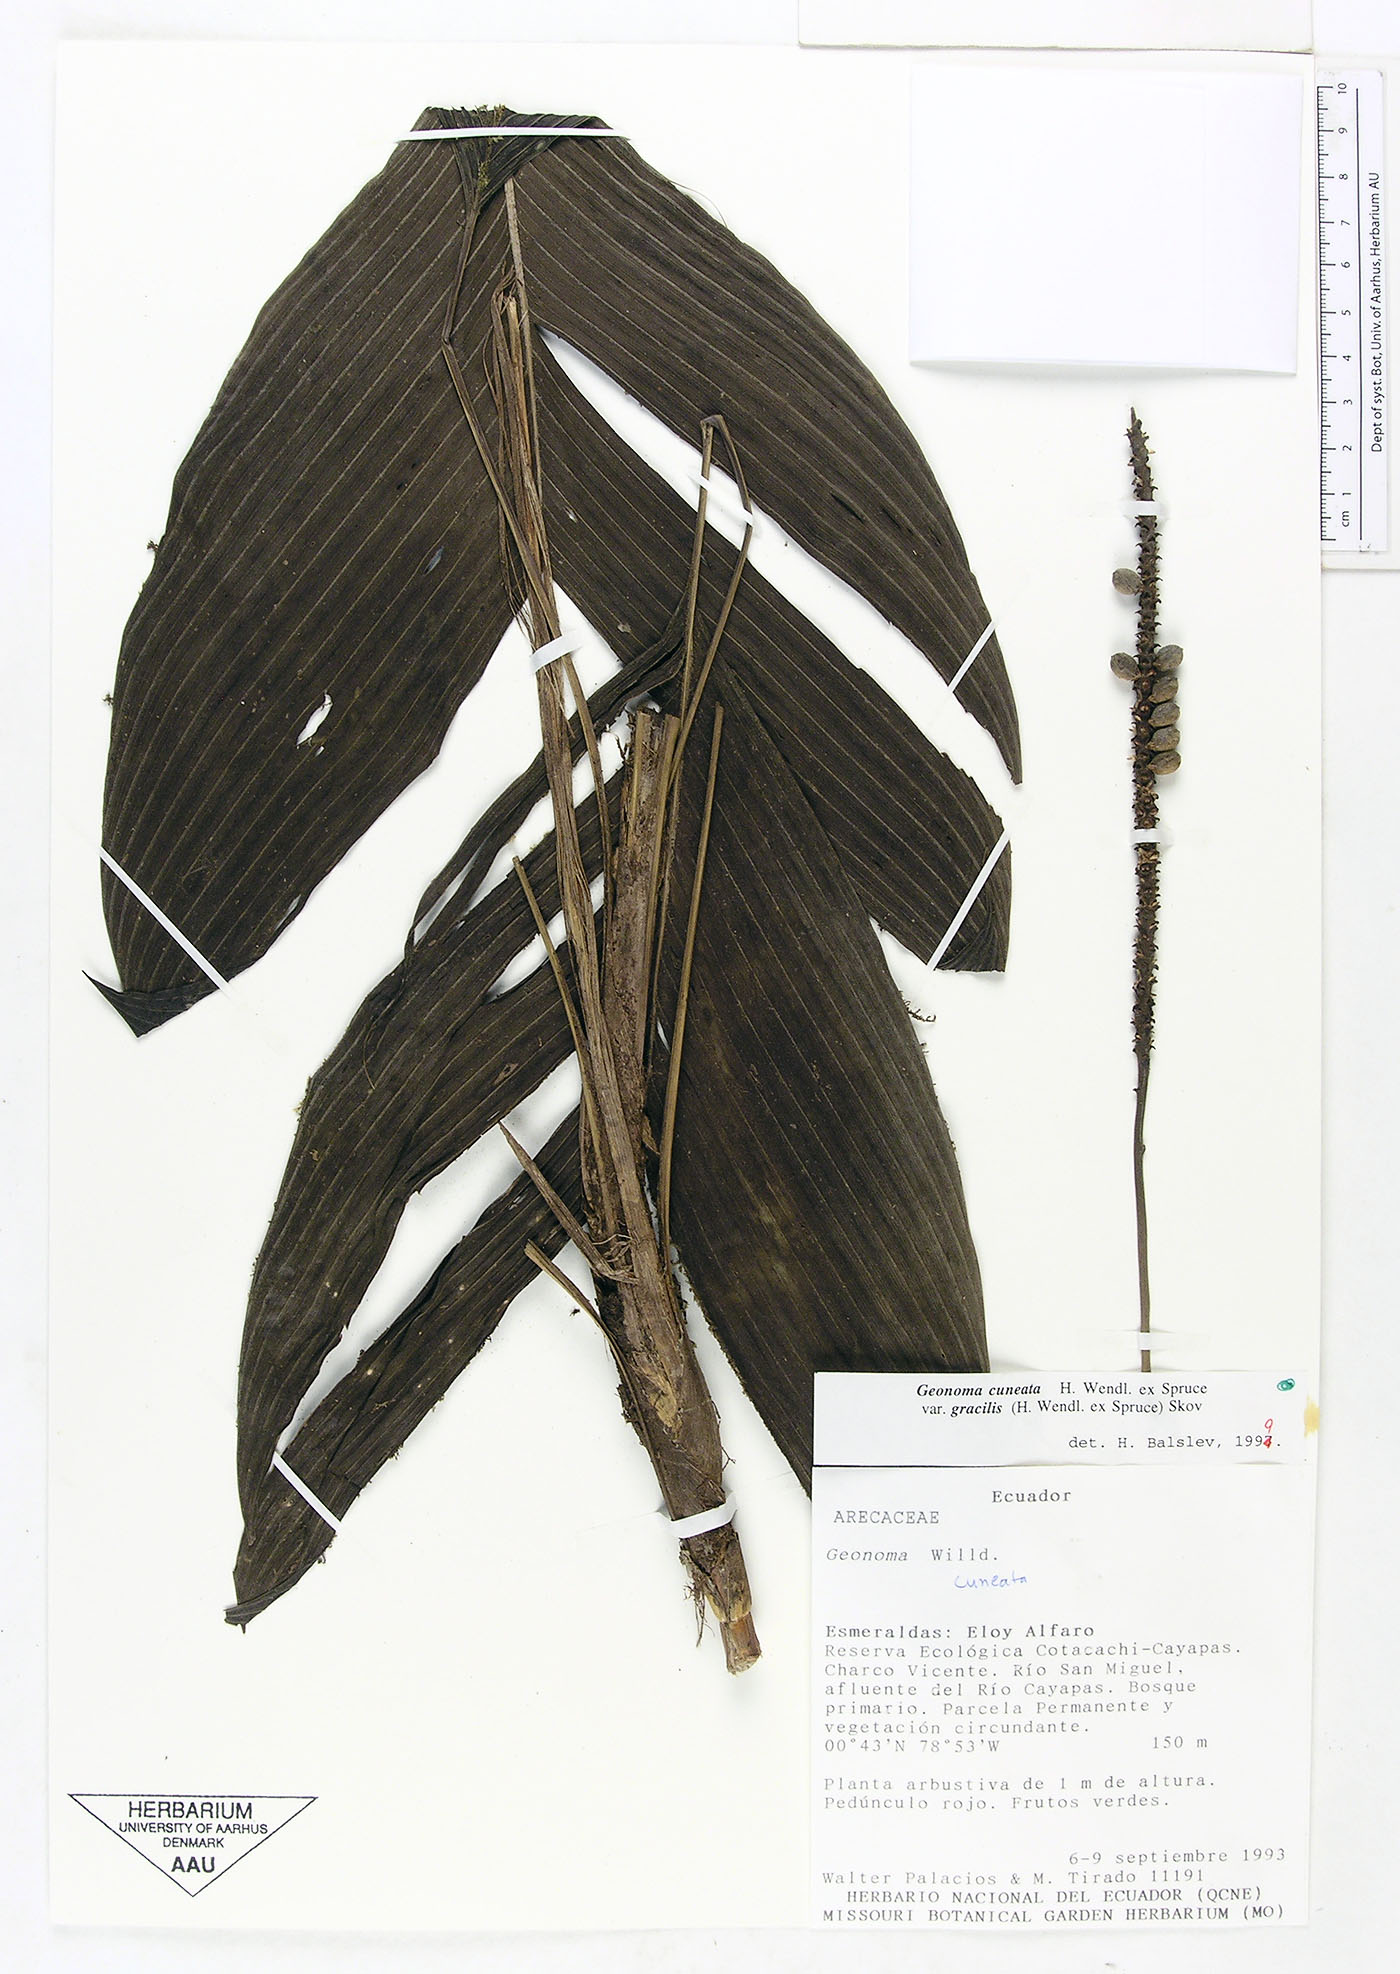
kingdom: Plantae
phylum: Tracheophyta
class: Liliopsida
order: Arecales
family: Arecaceae
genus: Geonoma
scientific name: Geonoma cuneata
